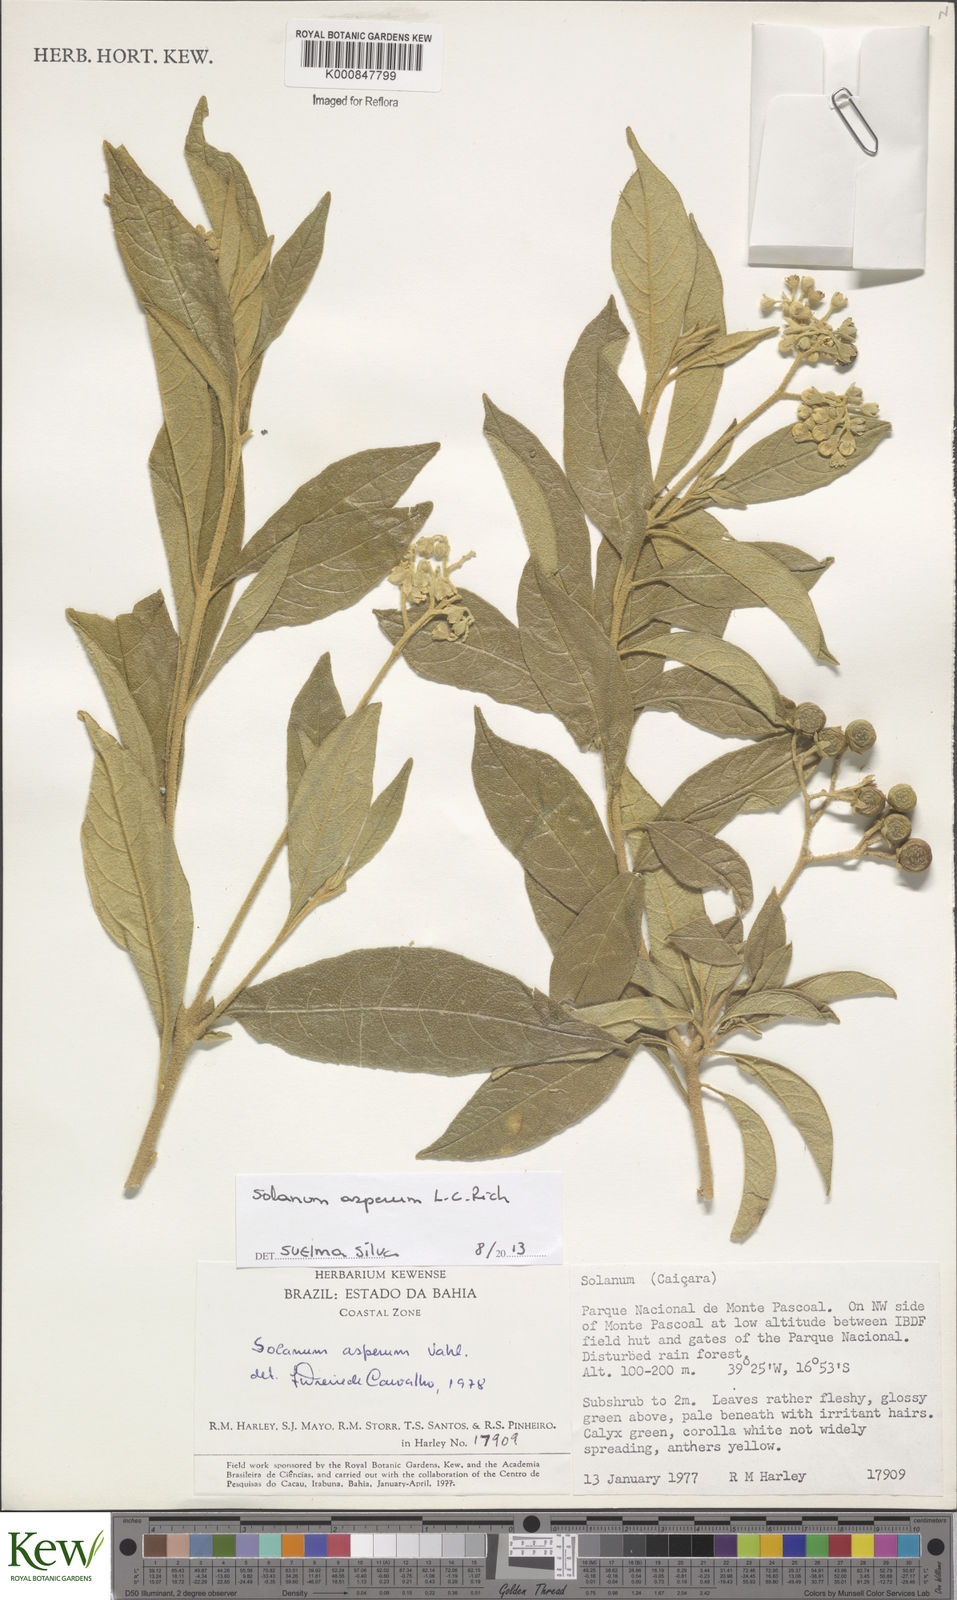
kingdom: Plantae
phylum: Tracheophyta
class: Magnoliopsida
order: Solanales
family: Solanaceae
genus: Solanum
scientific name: Solanum asperum
